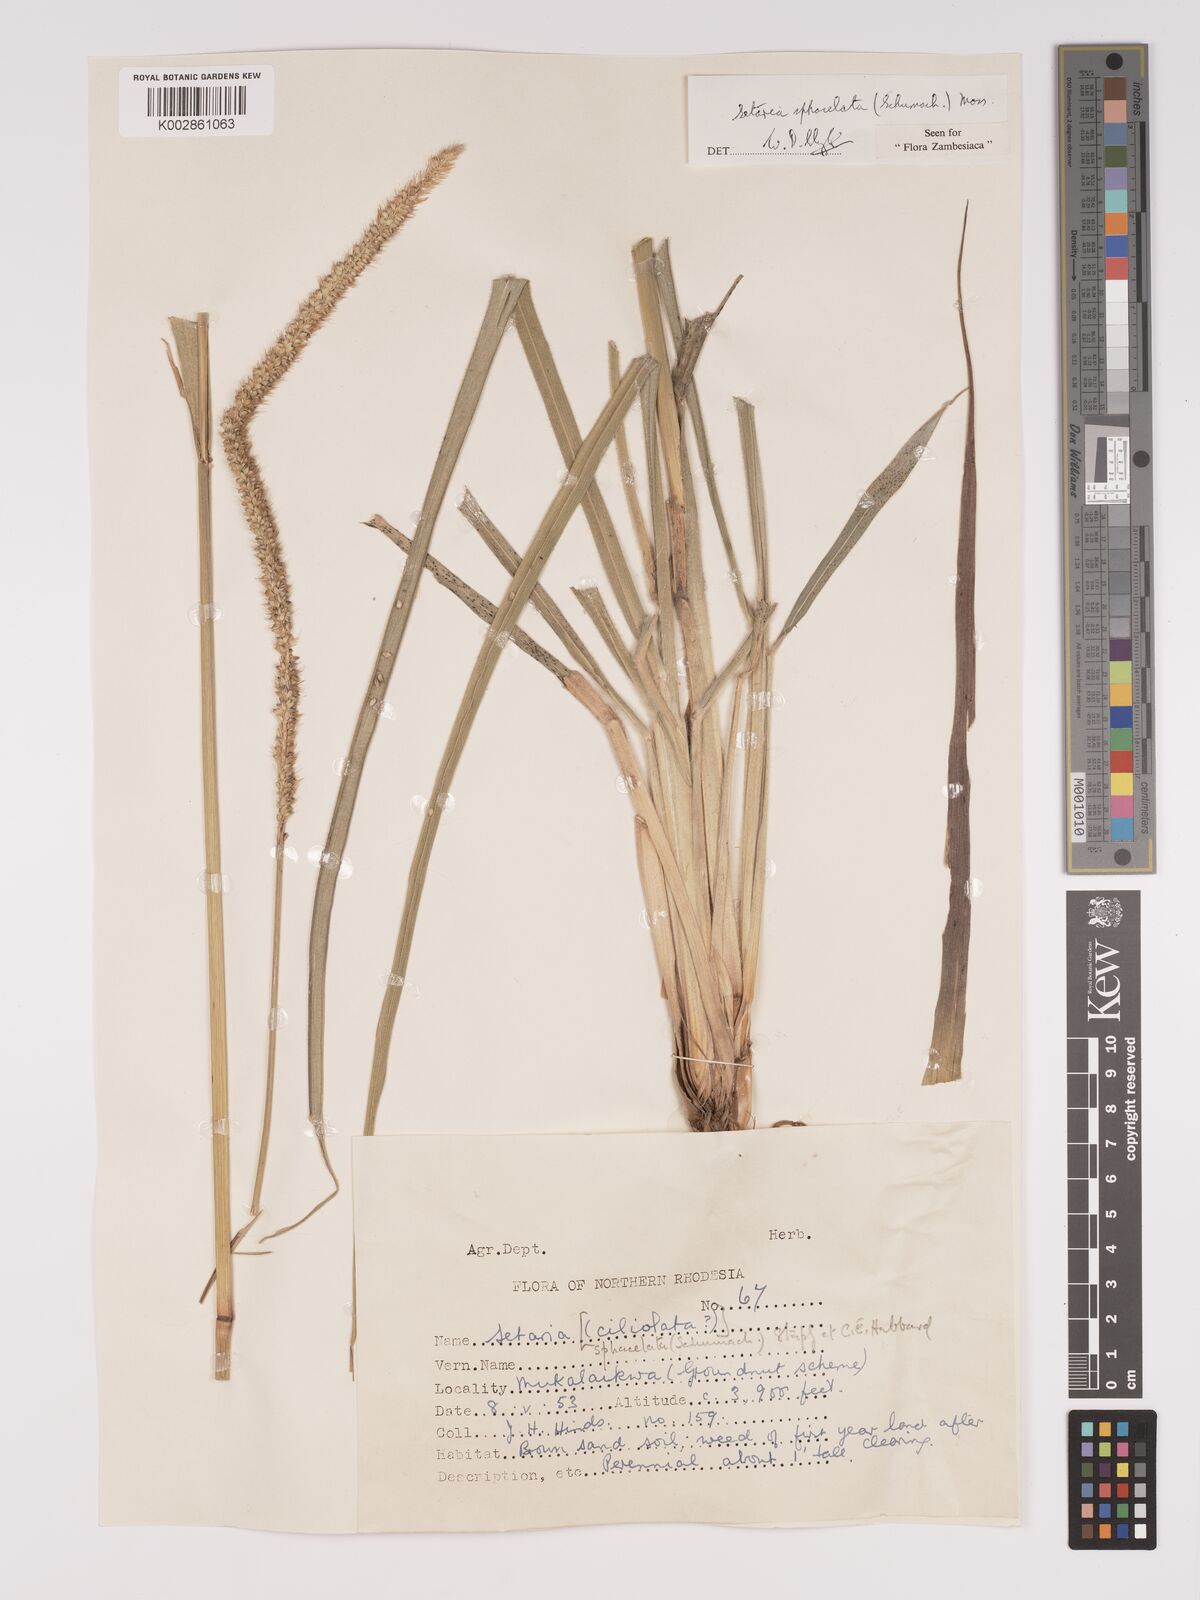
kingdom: Plantae
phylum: Tracheophyta
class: Liliopsida
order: Poales
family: Poaceae
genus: Setaria
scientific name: Setaria sphacelata
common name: African bristlegrass
